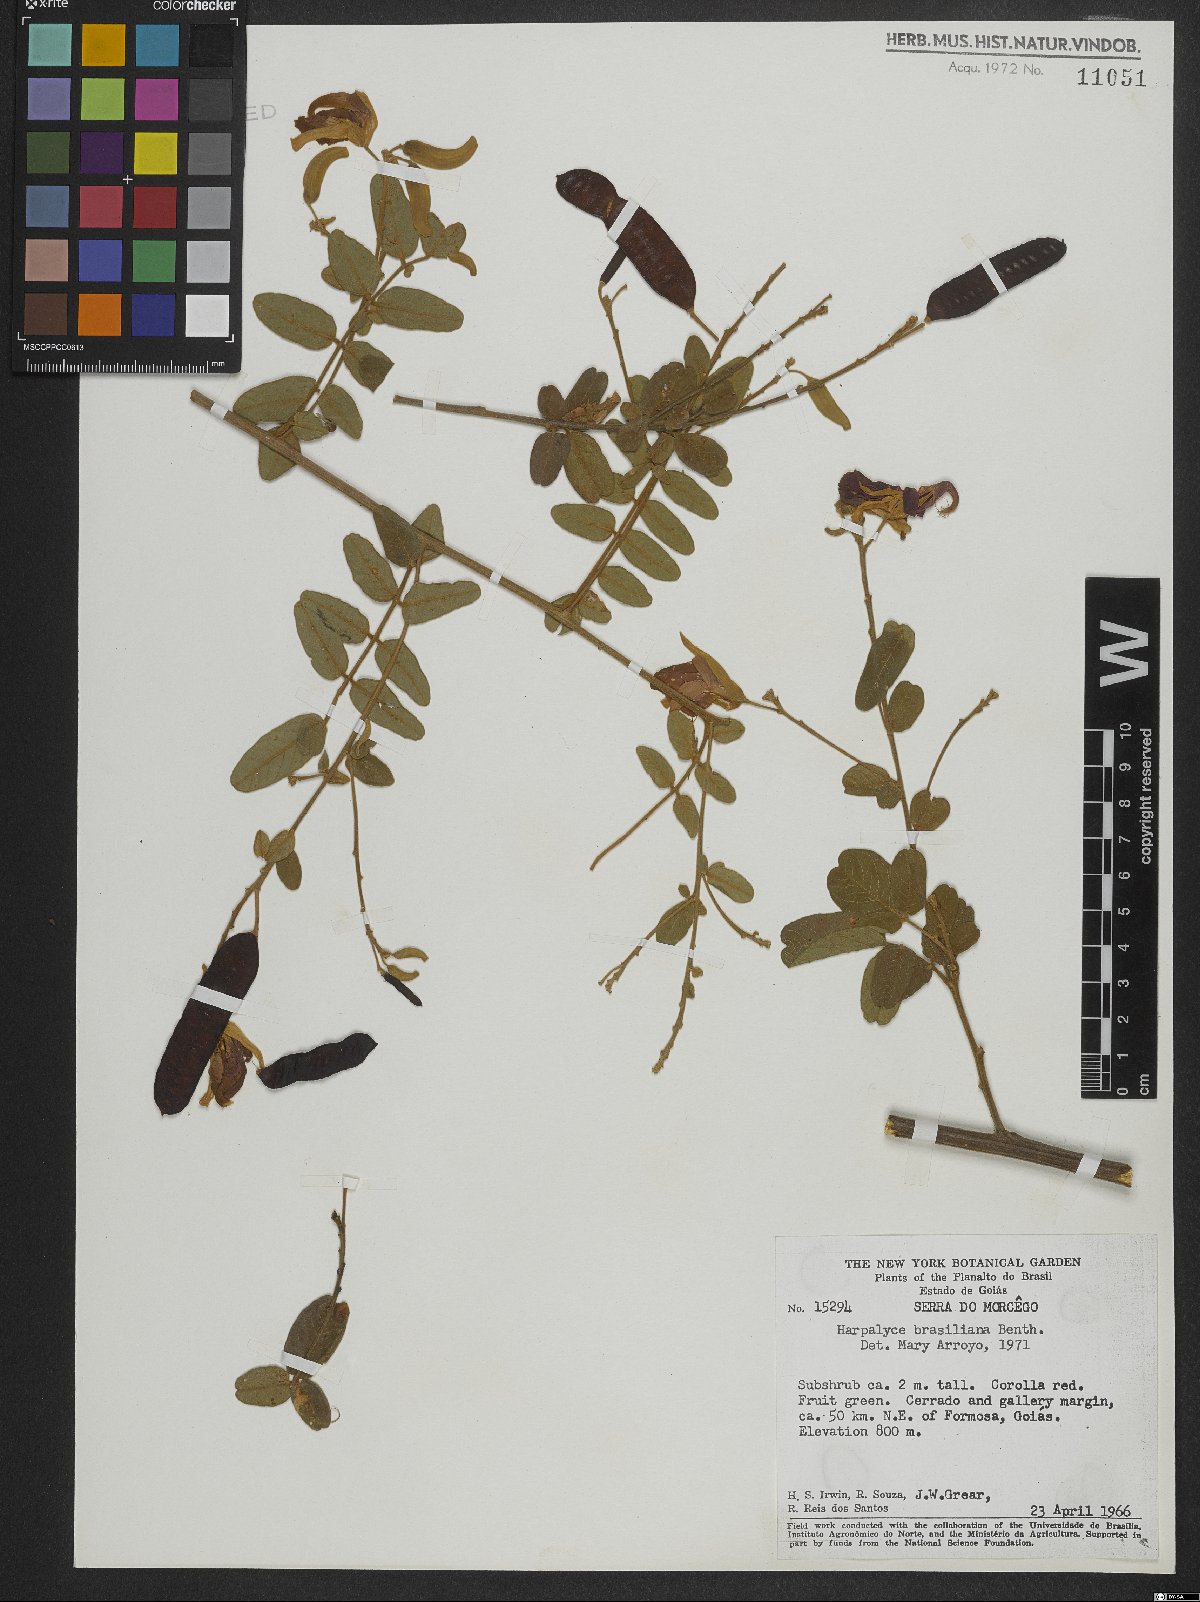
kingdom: Plantae
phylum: Tracheophyta
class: Magnoliopsida
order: Fabales
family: Fabaceae
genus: Harpalyce
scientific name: Harpalyce brasiliana
